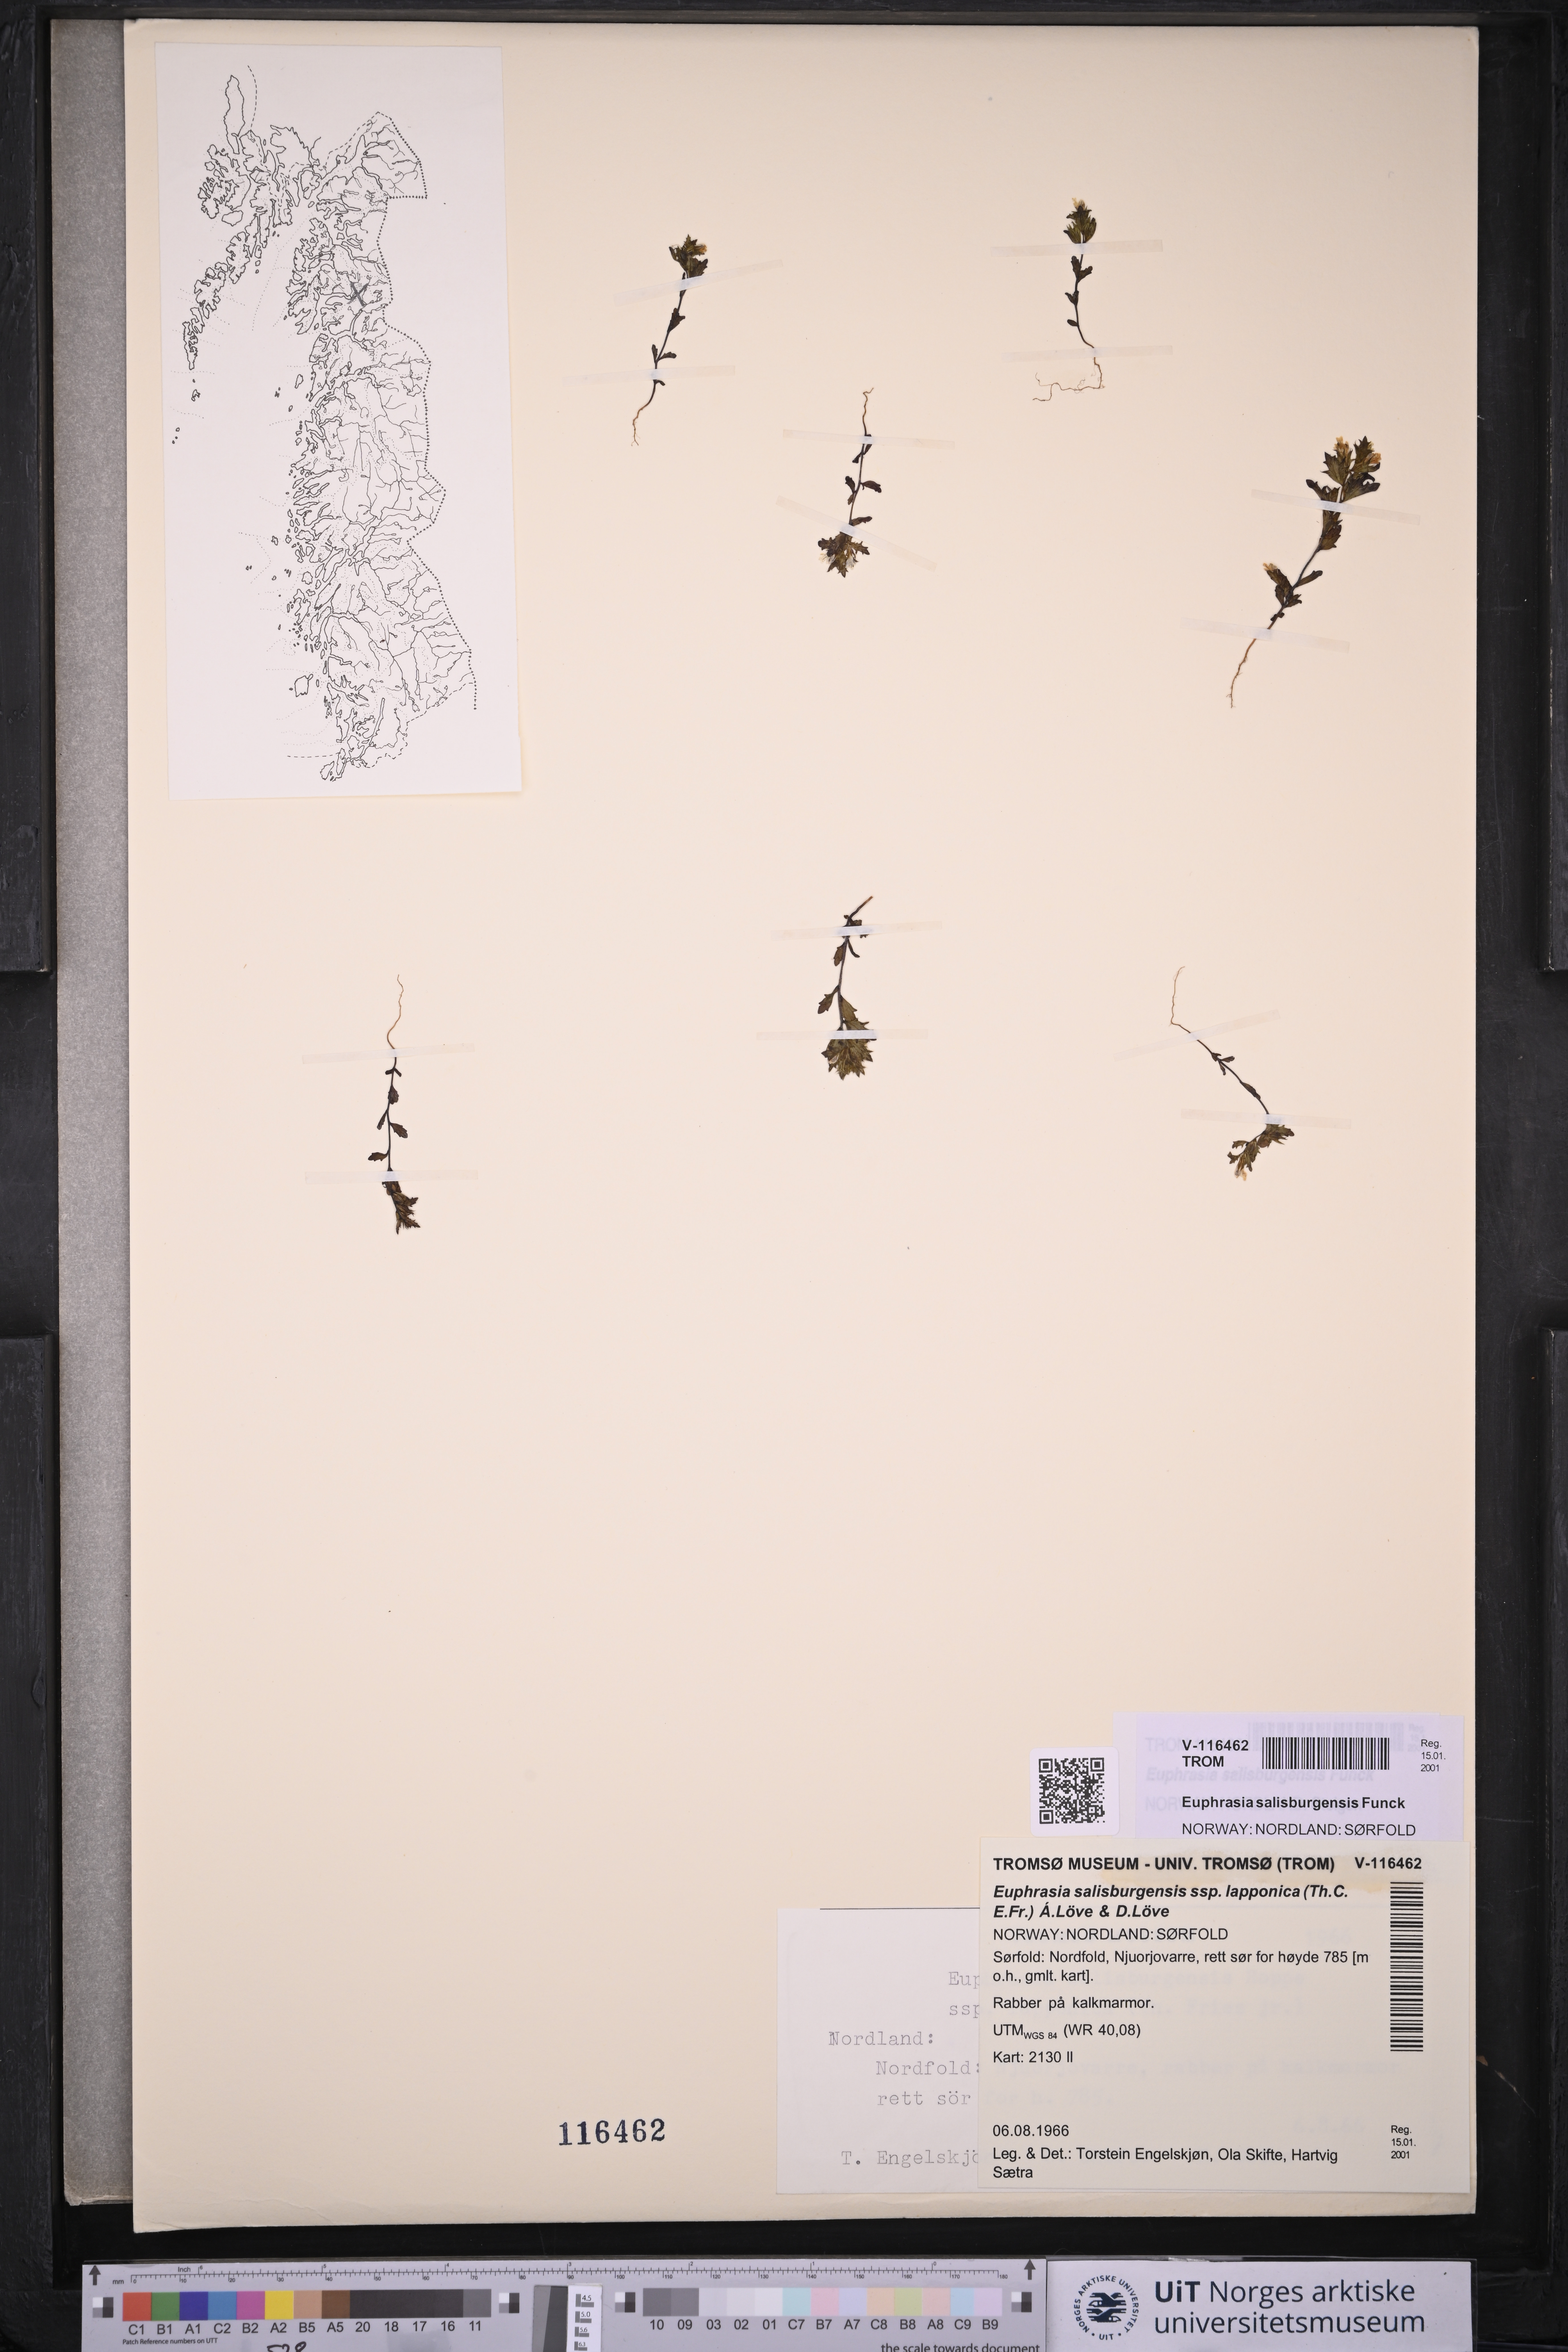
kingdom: Plantae
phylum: Tracheophyta
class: Magnoliopsida
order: Lamiales
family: Orobanchaceae
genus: Euphrasia
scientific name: Euphrasia salisburgensis
